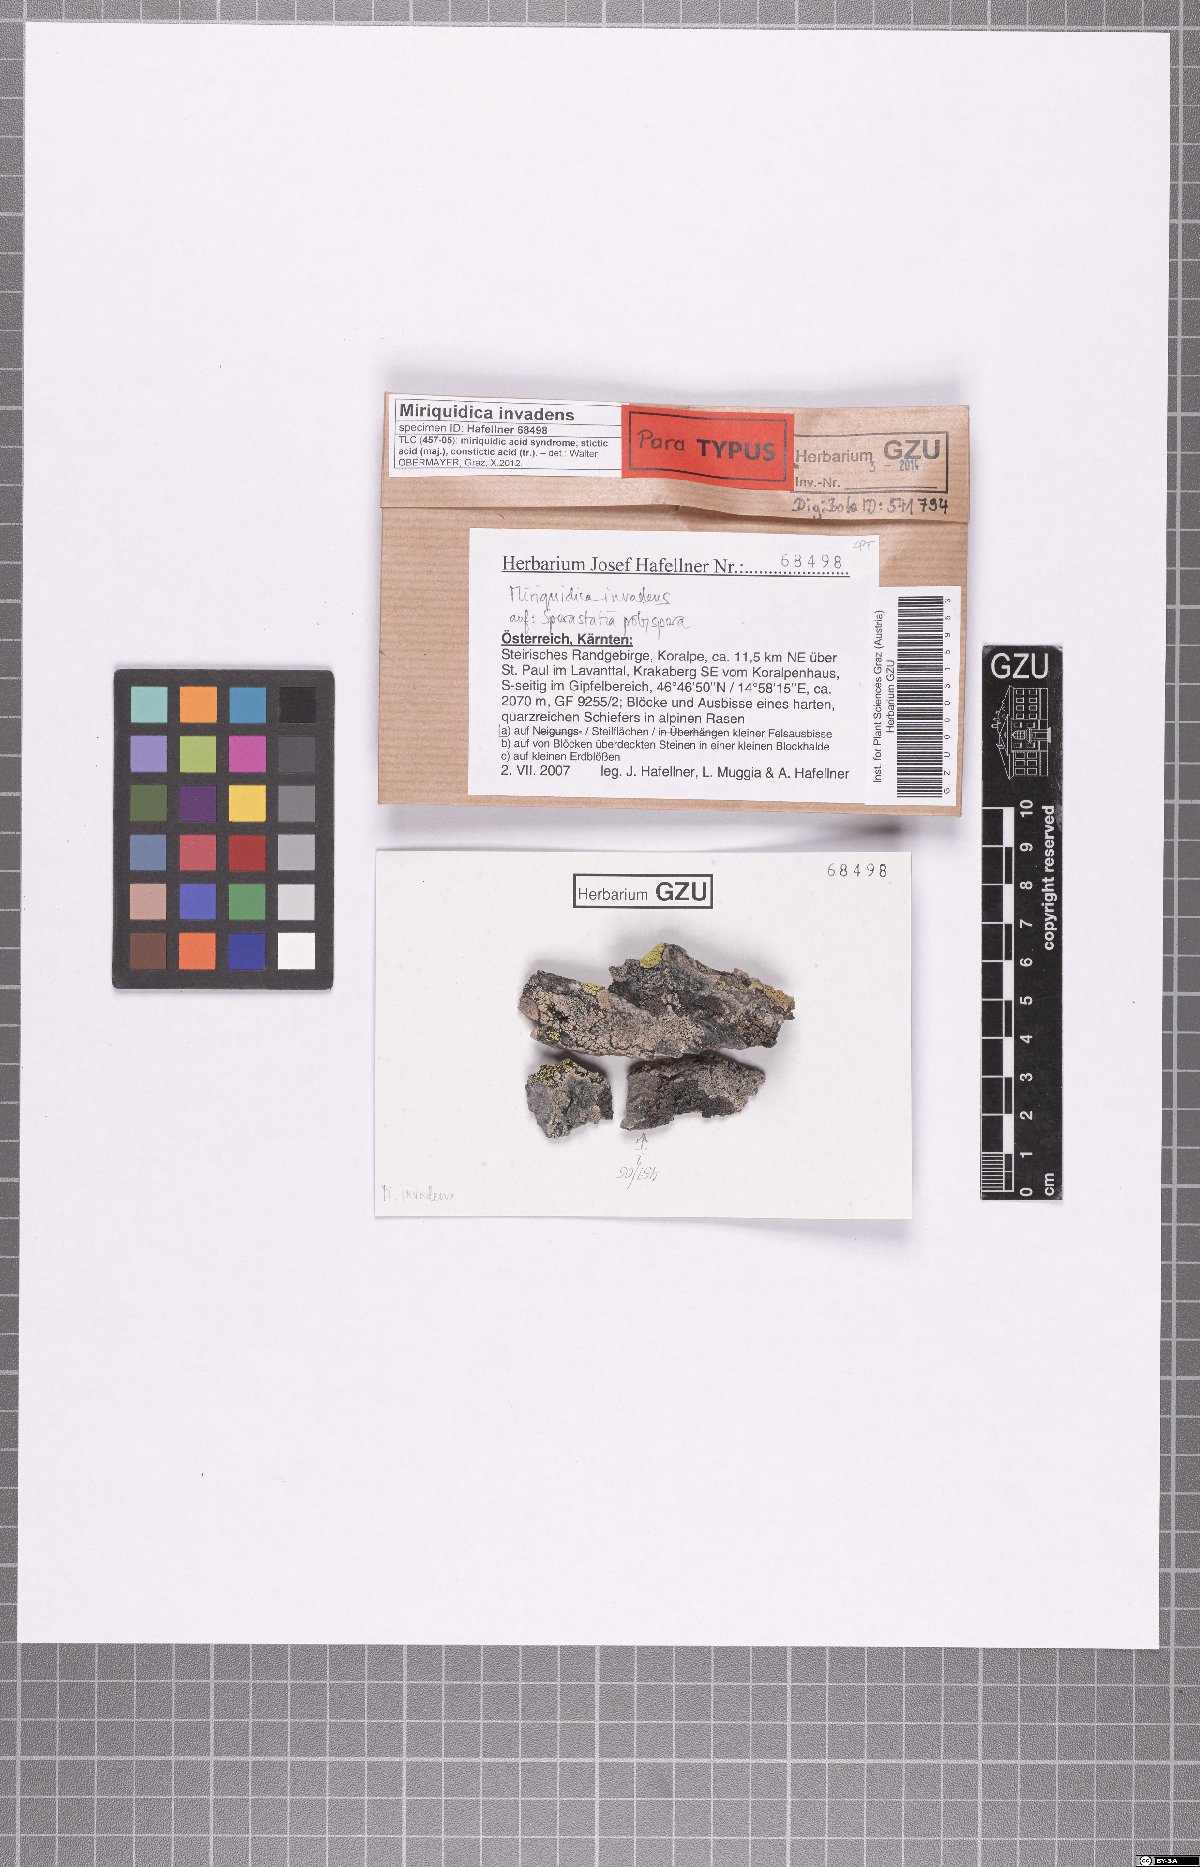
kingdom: Fungi
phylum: Ascomycota
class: Lecanoromycetes
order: Lecanorales
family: Lecanoraceae
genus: Miriquidica
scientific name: Miriquidica invadens
